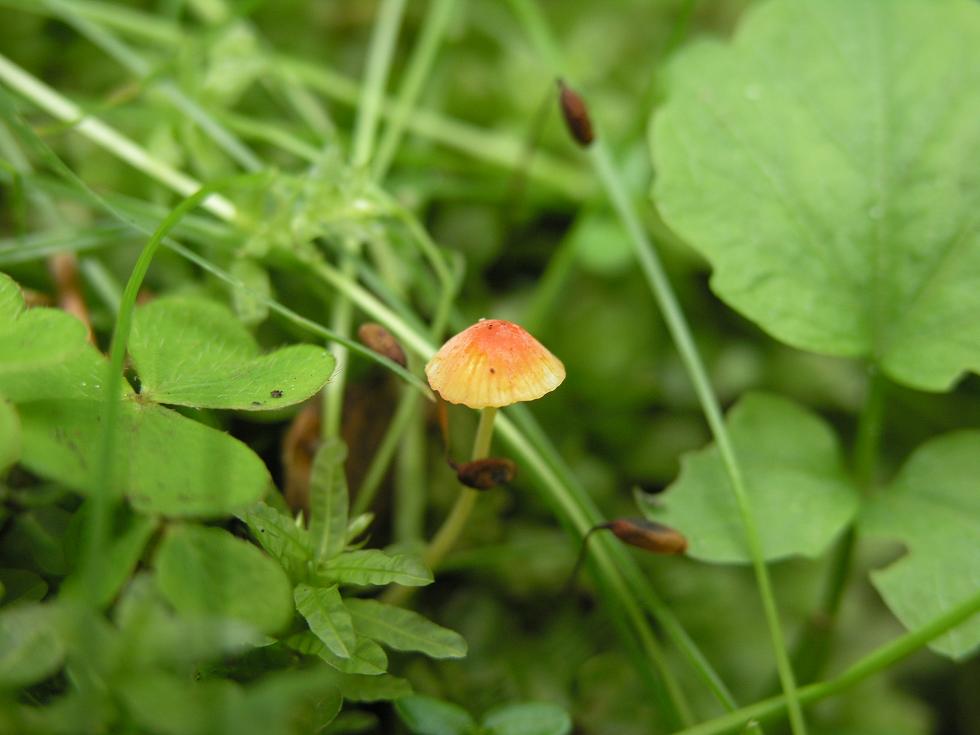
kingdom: Fungi
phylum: Basidiomycota
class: Agaricomycetes
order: Agaricales
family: Mycenaceae
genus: Mycena
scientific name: Mycena acicula
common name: orange huesvamp
